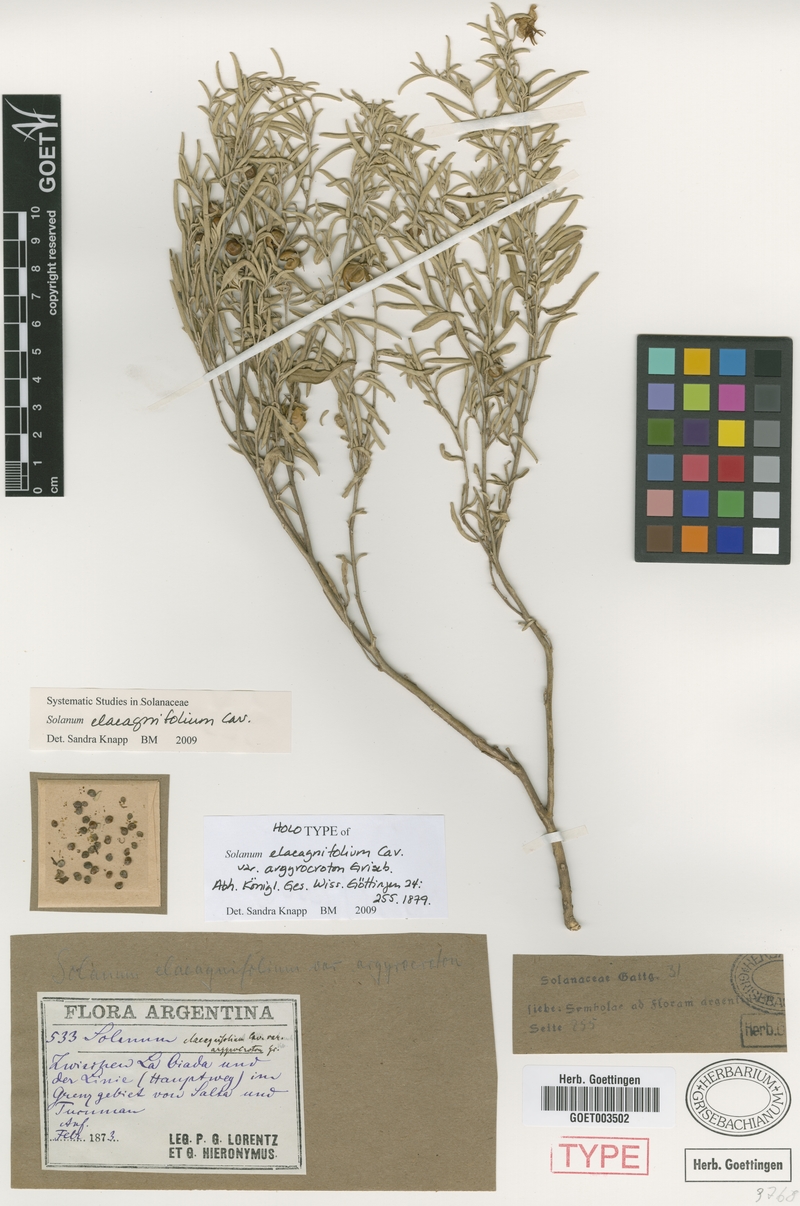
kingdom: Plantae
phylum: Tracheophyta
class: Magnoliopsida
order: Solanales
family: Solanaceae
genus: Solanum
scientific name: Solanum elaeagnifolium
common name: Silverleaf nightshade
